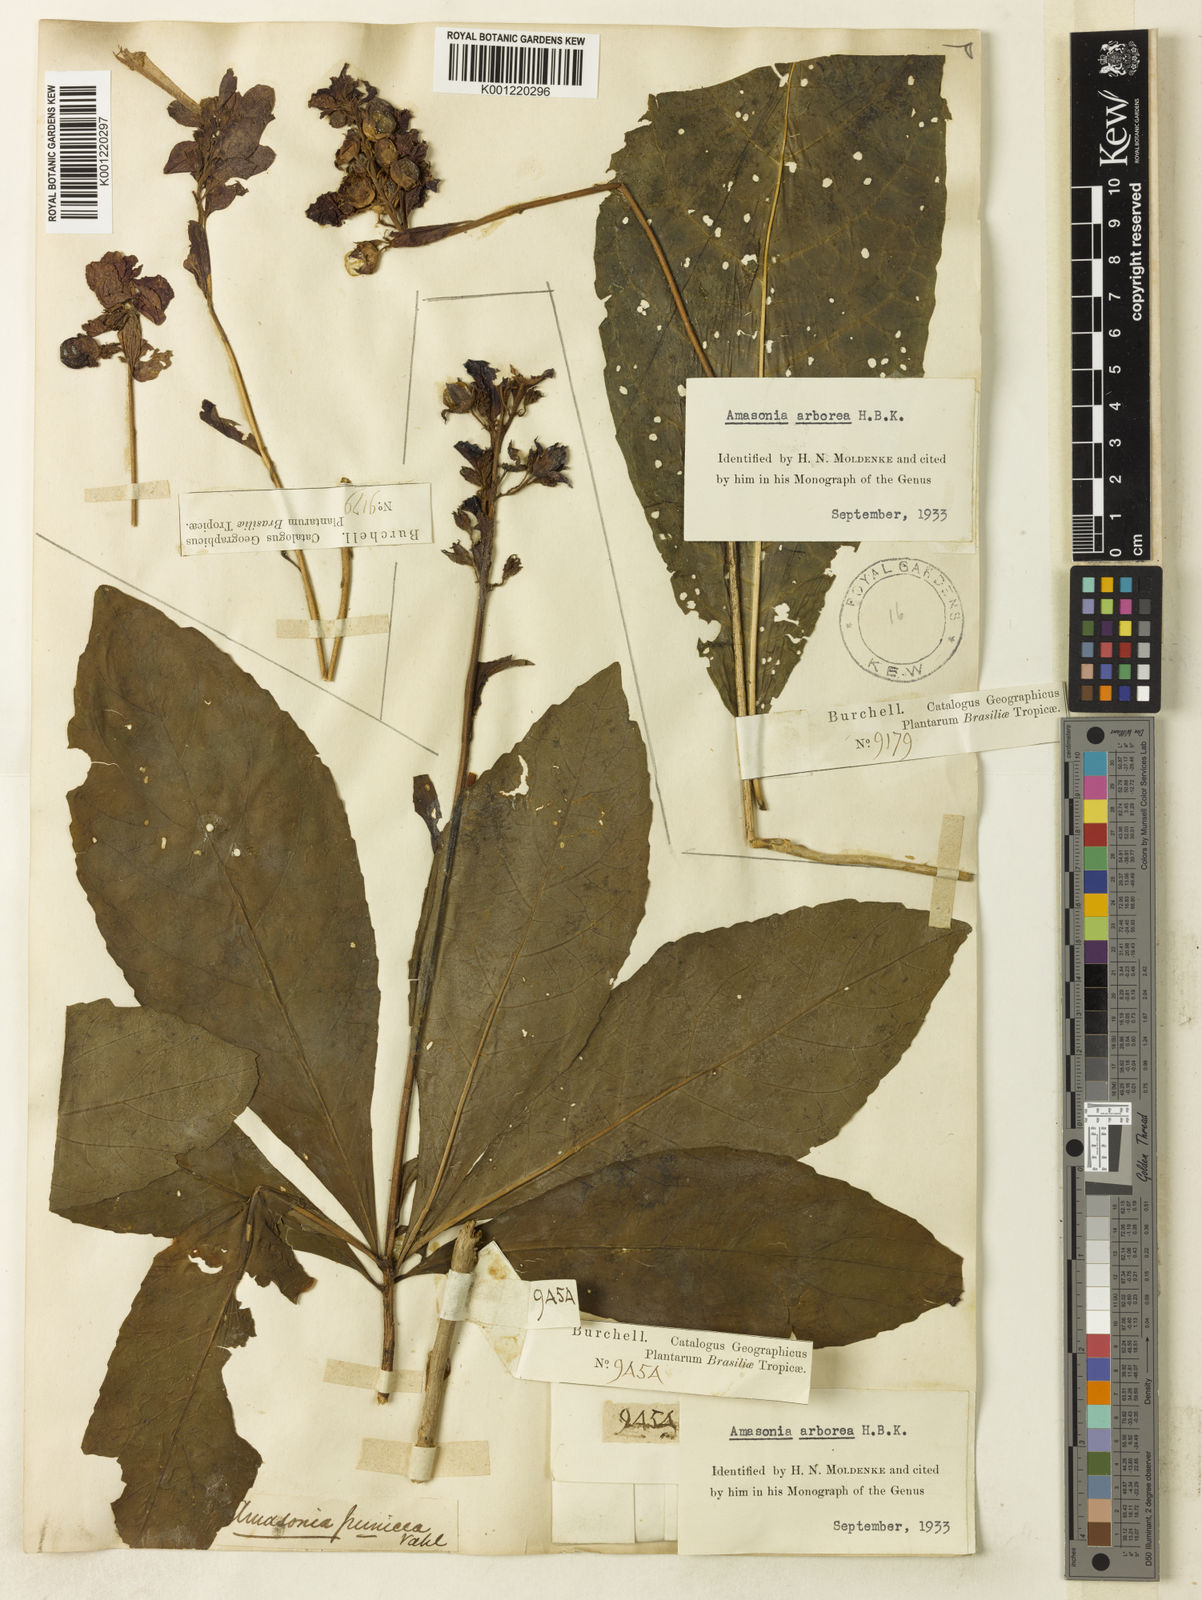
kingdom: Plantae
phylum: Tracheophyta
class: Magnoliopsida
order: Lamiales
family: Lamiaceae
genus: Amasonia
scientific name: Amasonia arborea
